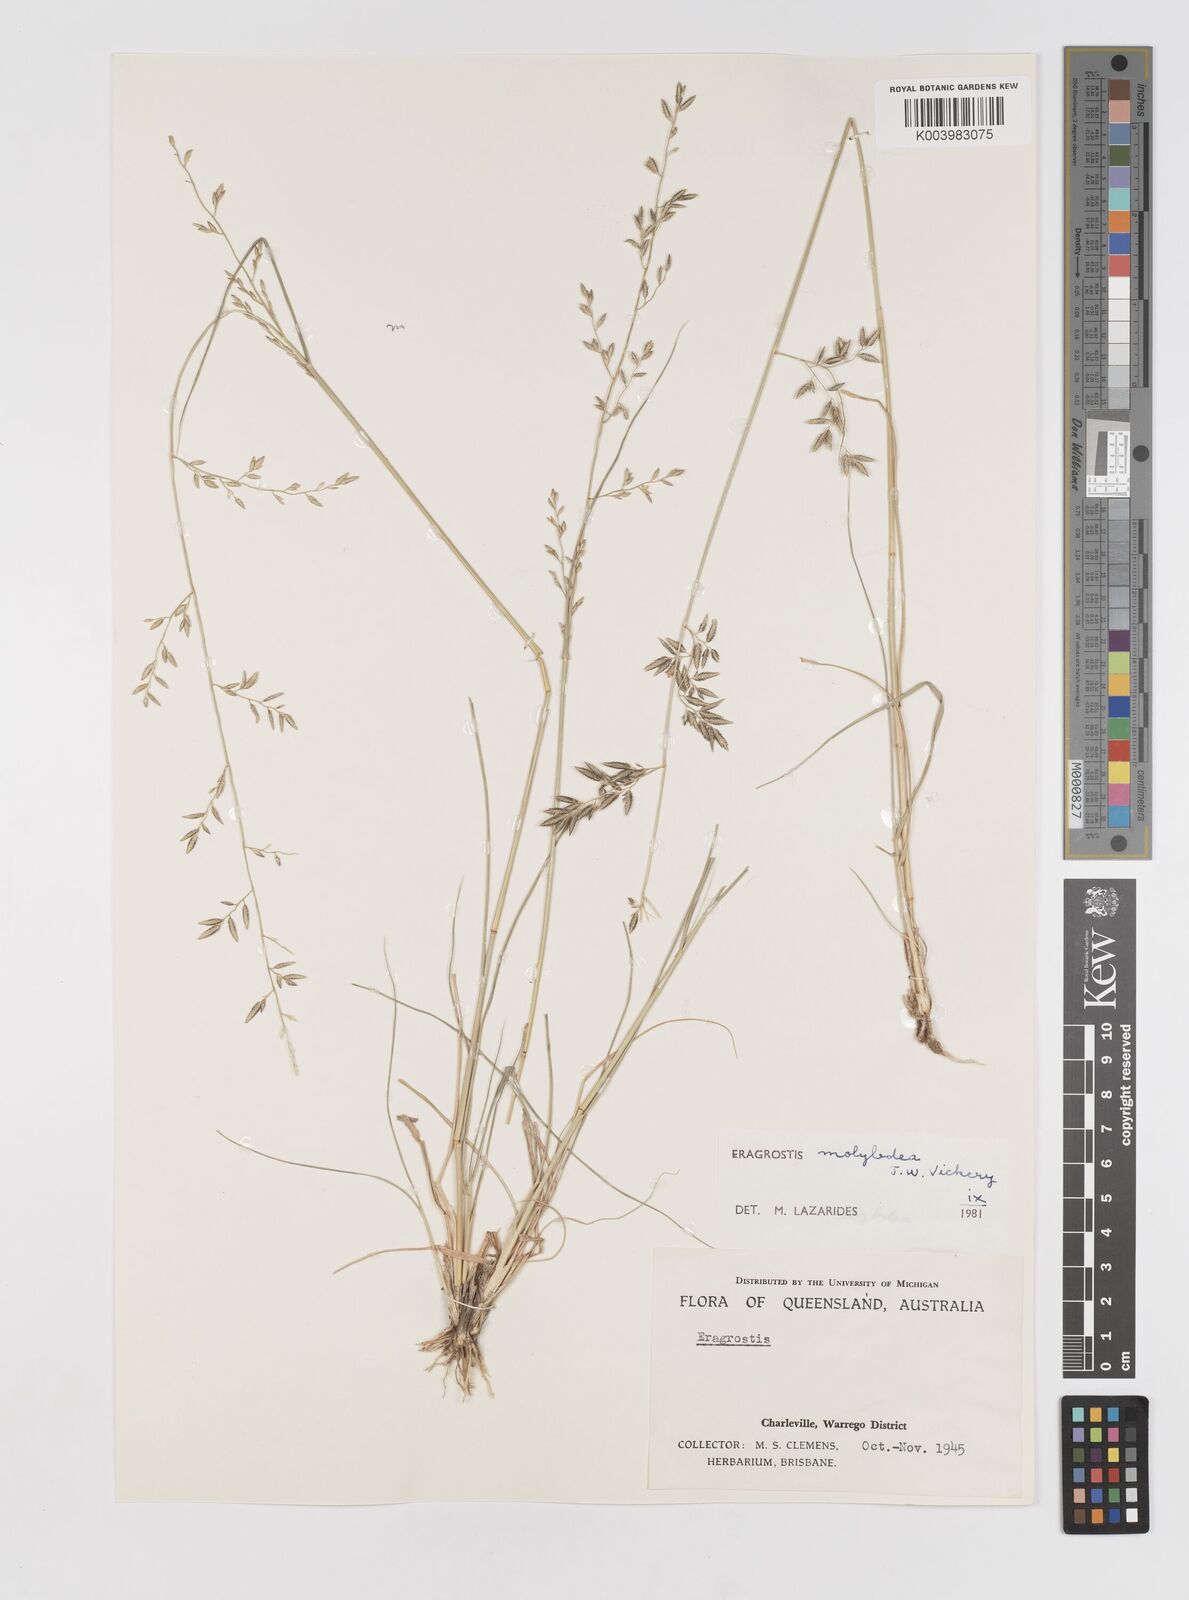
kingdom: Plantae
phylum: Tracheophyta
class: Liliopsida
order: Poales
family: Poaceae
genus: Eragrostis
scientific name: Eragrostis leptostachya
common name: Australian lovegrass
